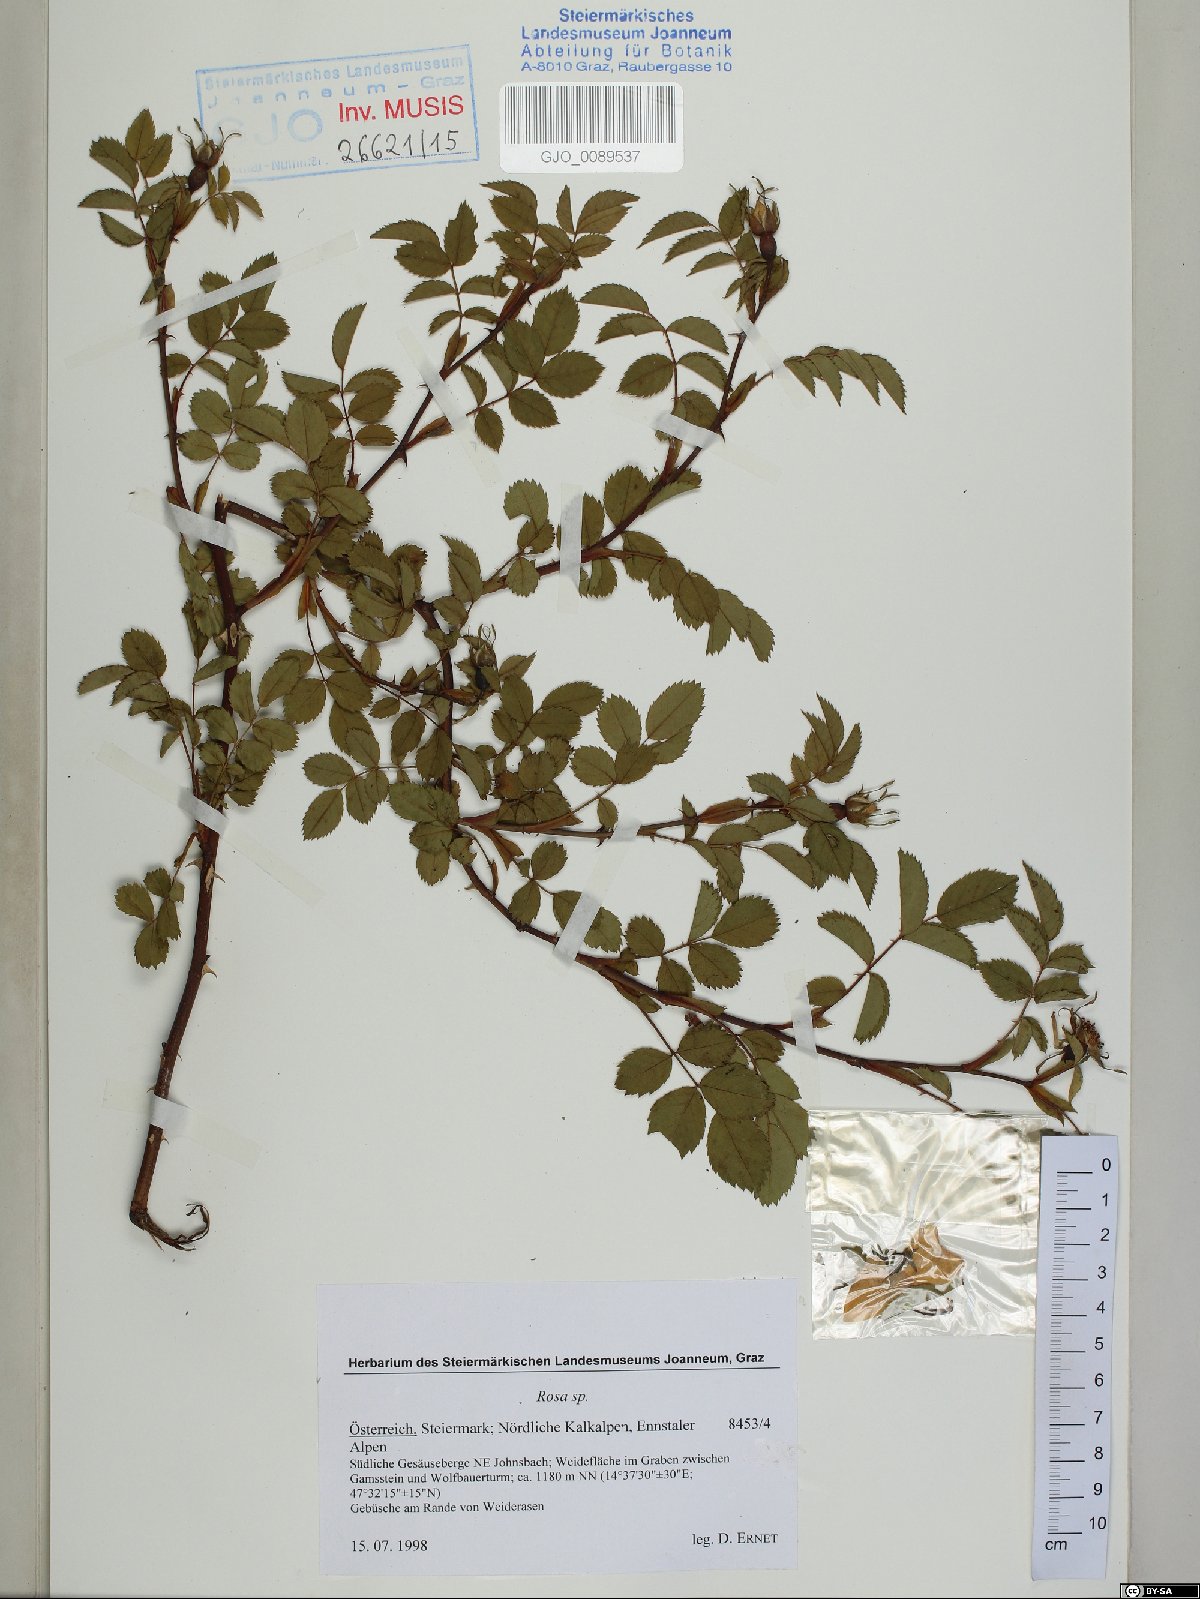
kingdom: Plantae
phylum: Tracheophyta
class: Magnoliopsida
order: Rosales
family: Rosaceae
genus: Rosa
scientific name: Rosa
